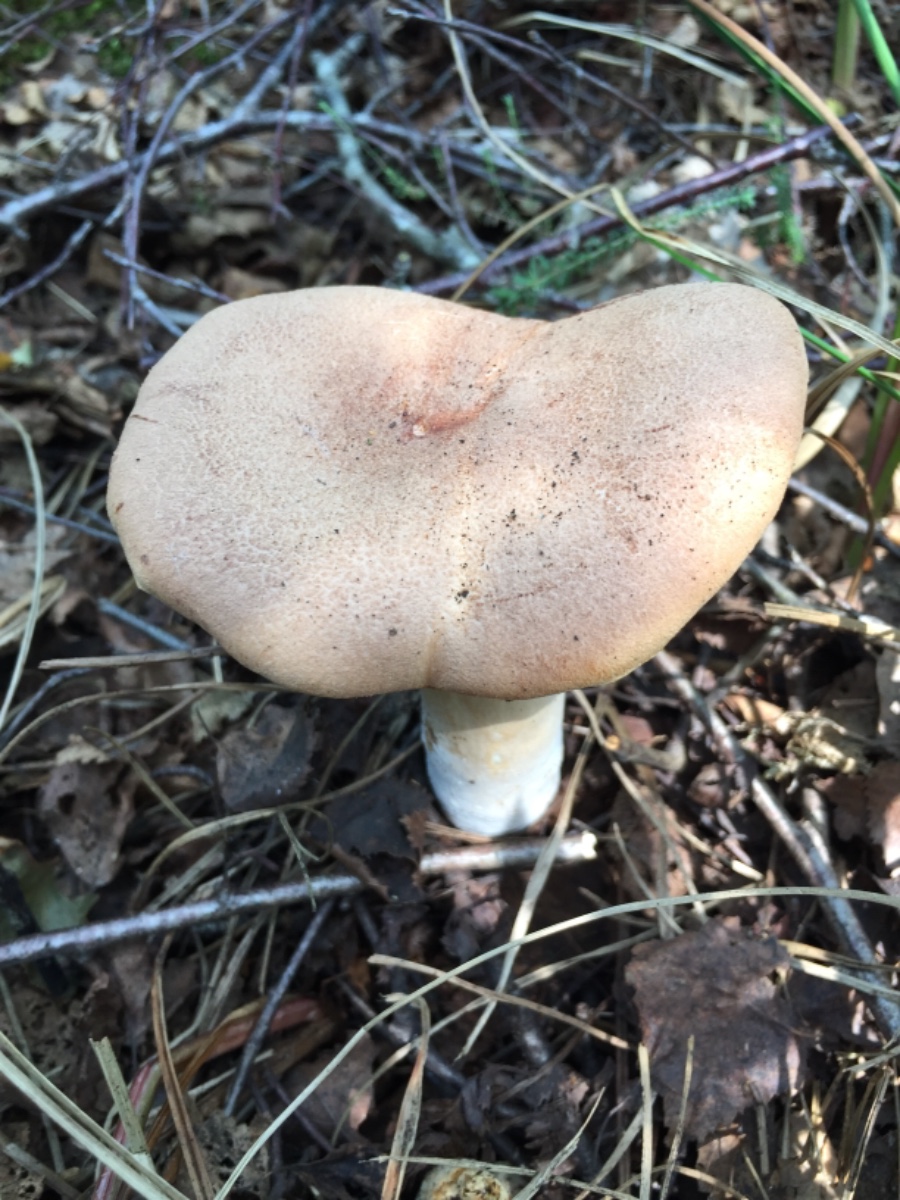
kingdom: Fungi
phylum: Basidiomycota
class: Agaricomycetes
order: Russulales
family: Russulaceae
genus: Lactarius
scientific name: Lactarius helvus
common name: mose-mælkehat
